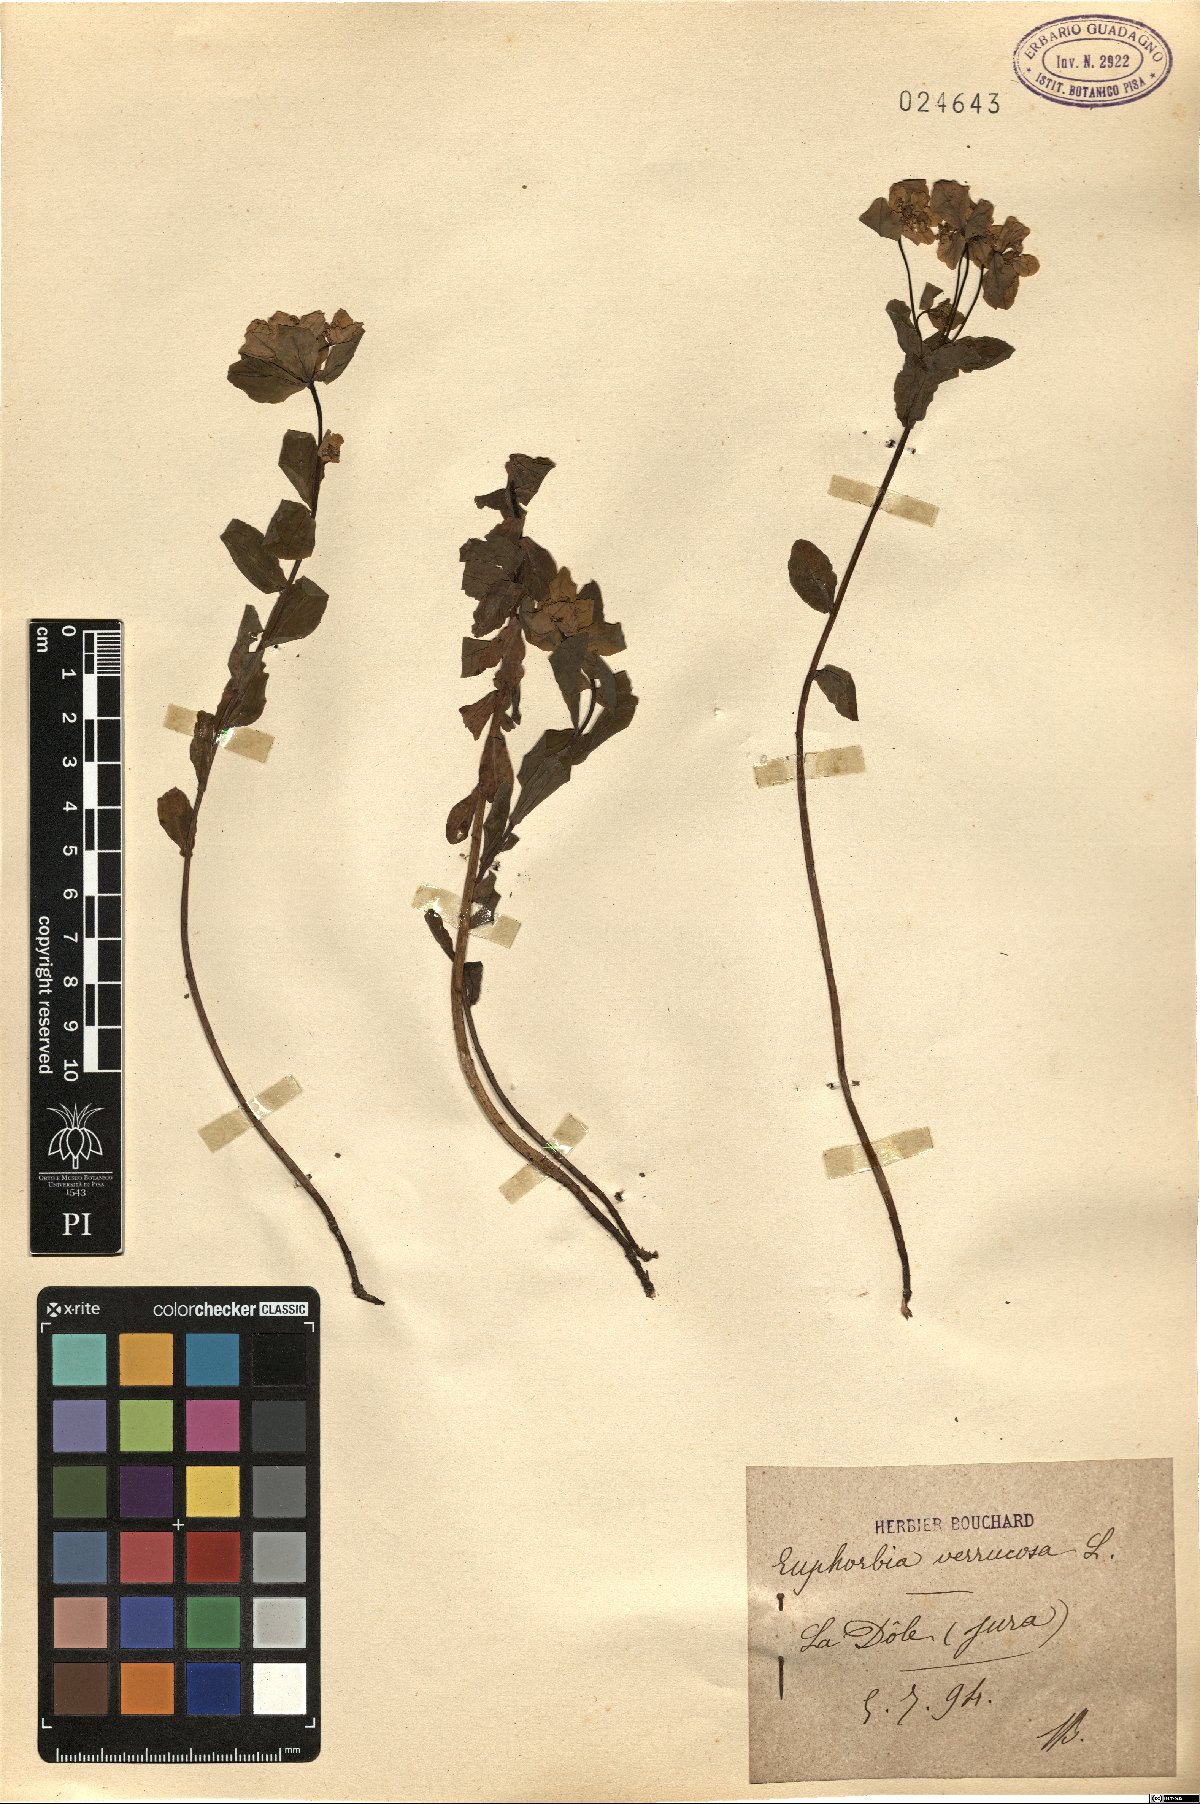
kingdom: Plantae
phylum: Tracheophyta
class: Magnoliopsida
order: Malpighiales
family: Euphorbiaceae
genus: Euphorbia
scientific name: Euphorbia verrucosa
